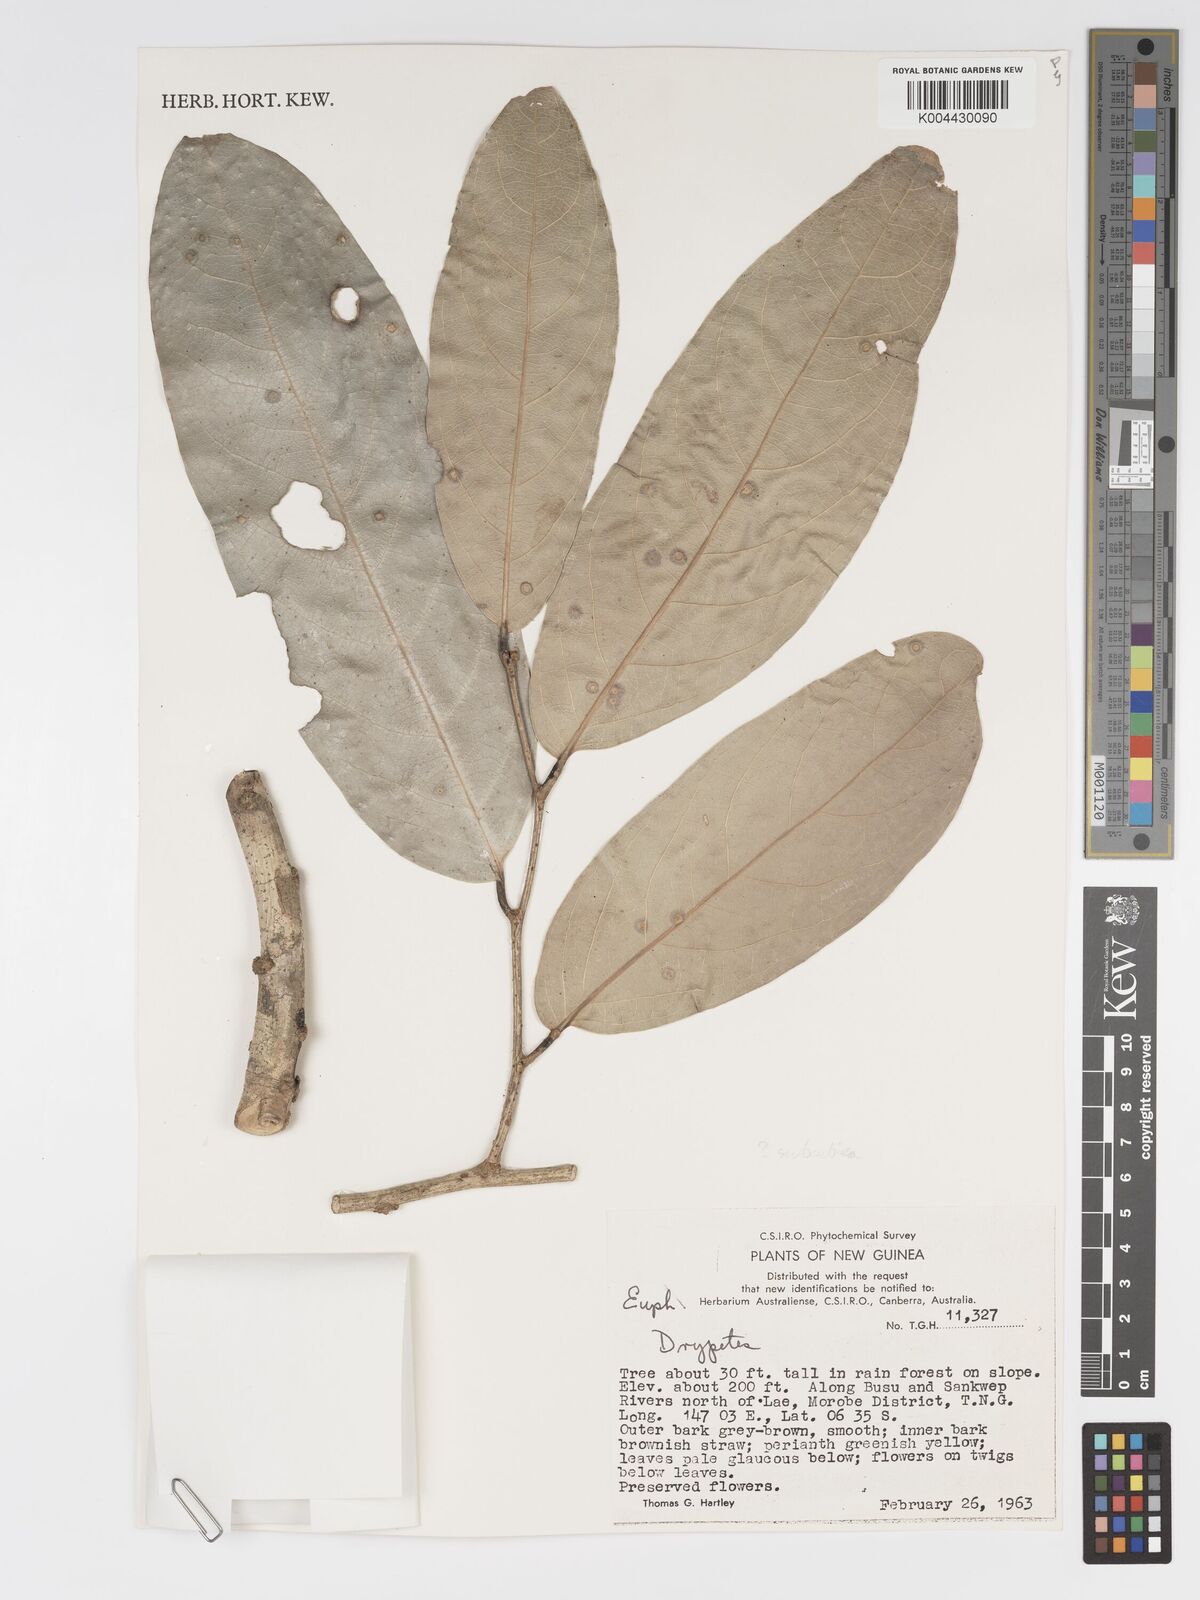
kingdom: Plantae
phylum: Tracheophyta
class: Magnoliopsida
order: Malpighiales
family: Putranjivaceae
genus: Drypetes
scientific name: Drypetes subcubica
